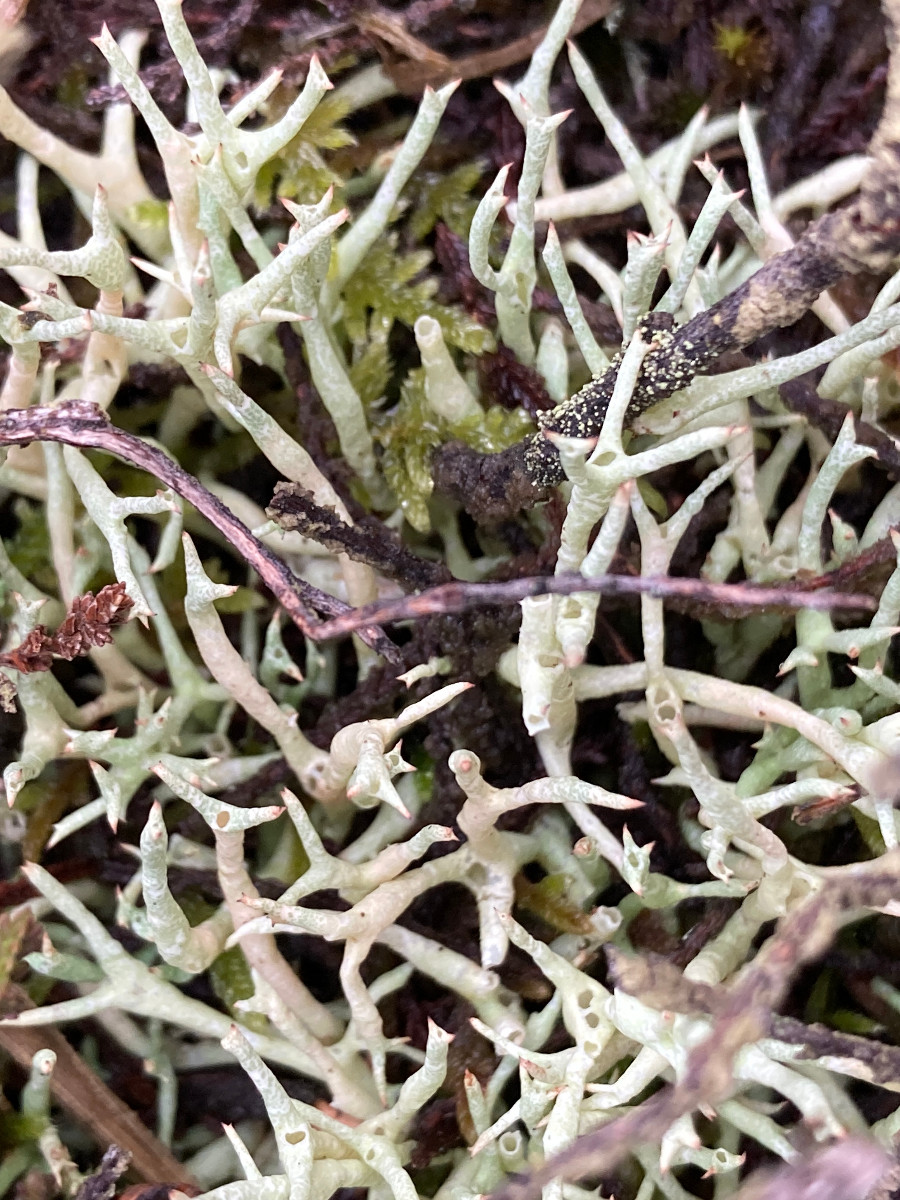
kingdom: Fungi
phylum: Ascomycota
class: Lecanoromycetes
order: Lecanorales
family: Cladoniaceae
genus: Cladonia
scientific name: Cladonia uncialis
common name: pigget bægerlav
